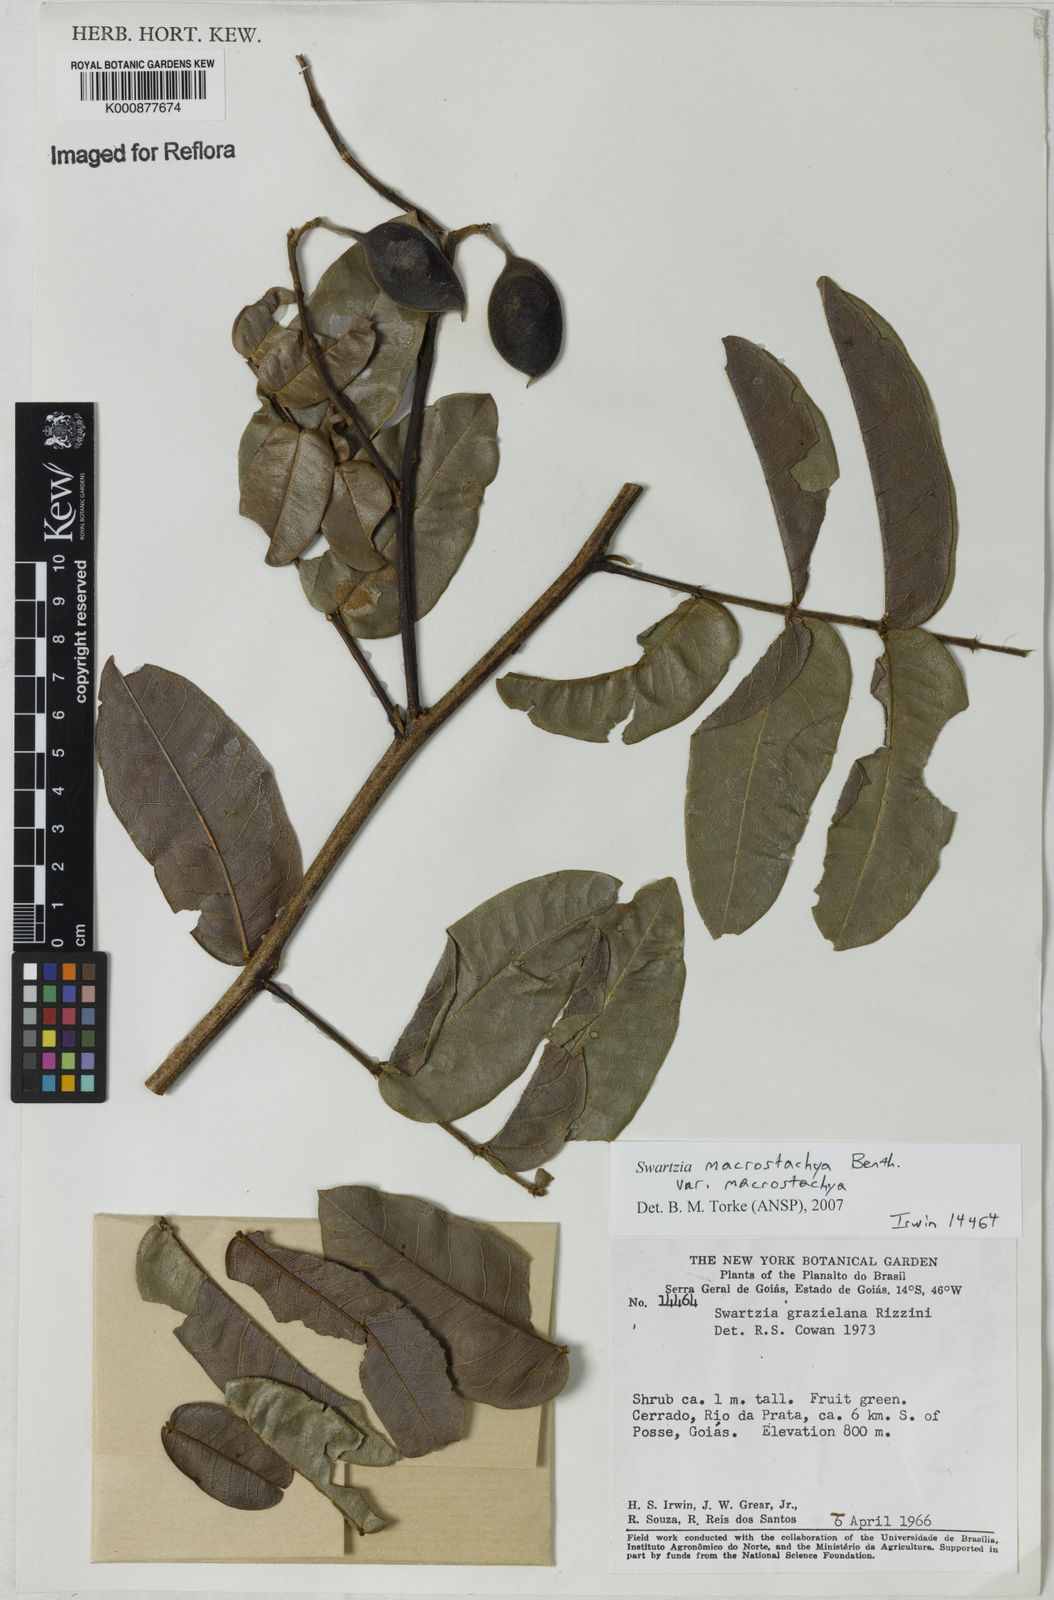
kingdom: Plantae
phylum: Tracheophyta
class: Magnoliopsida
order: Fabales
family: Fabaceae
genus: Swartzia
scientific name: Swartzia macrostachya
